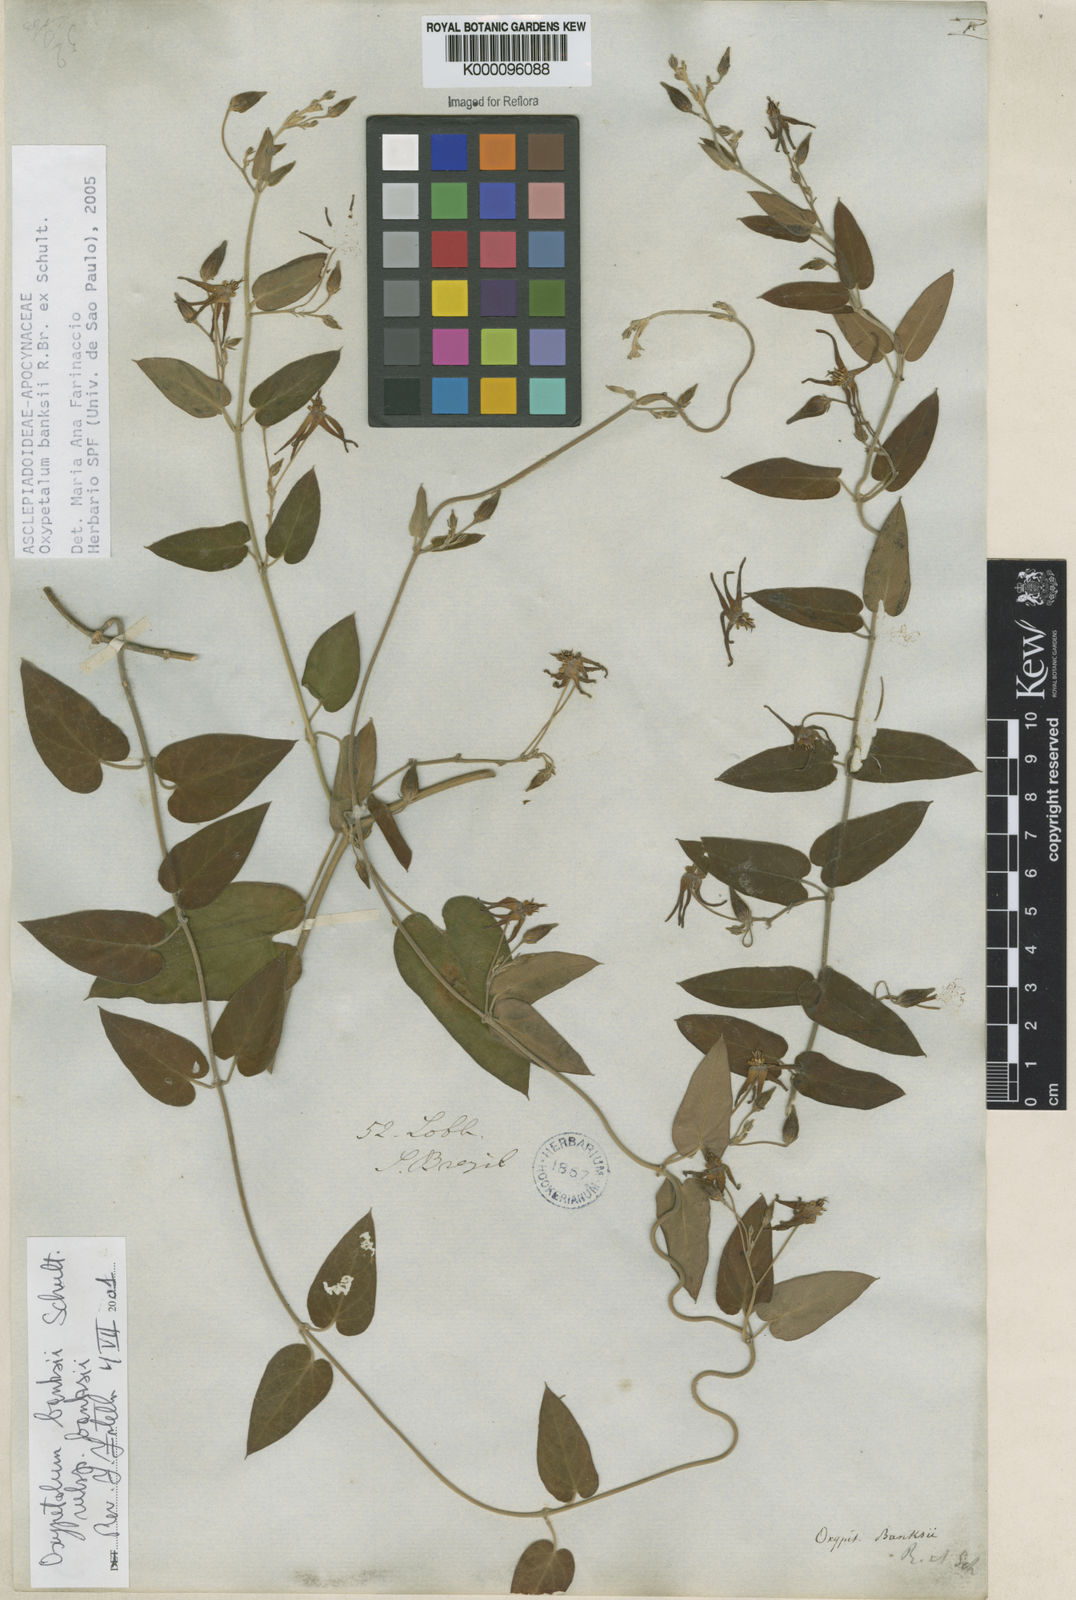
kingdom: Plantae
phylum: Tracheophyta
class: Magnoliopsida
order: Gentianales
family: Apocynaceae
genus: Oxypetalum
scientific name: Oxypetalum banksii
